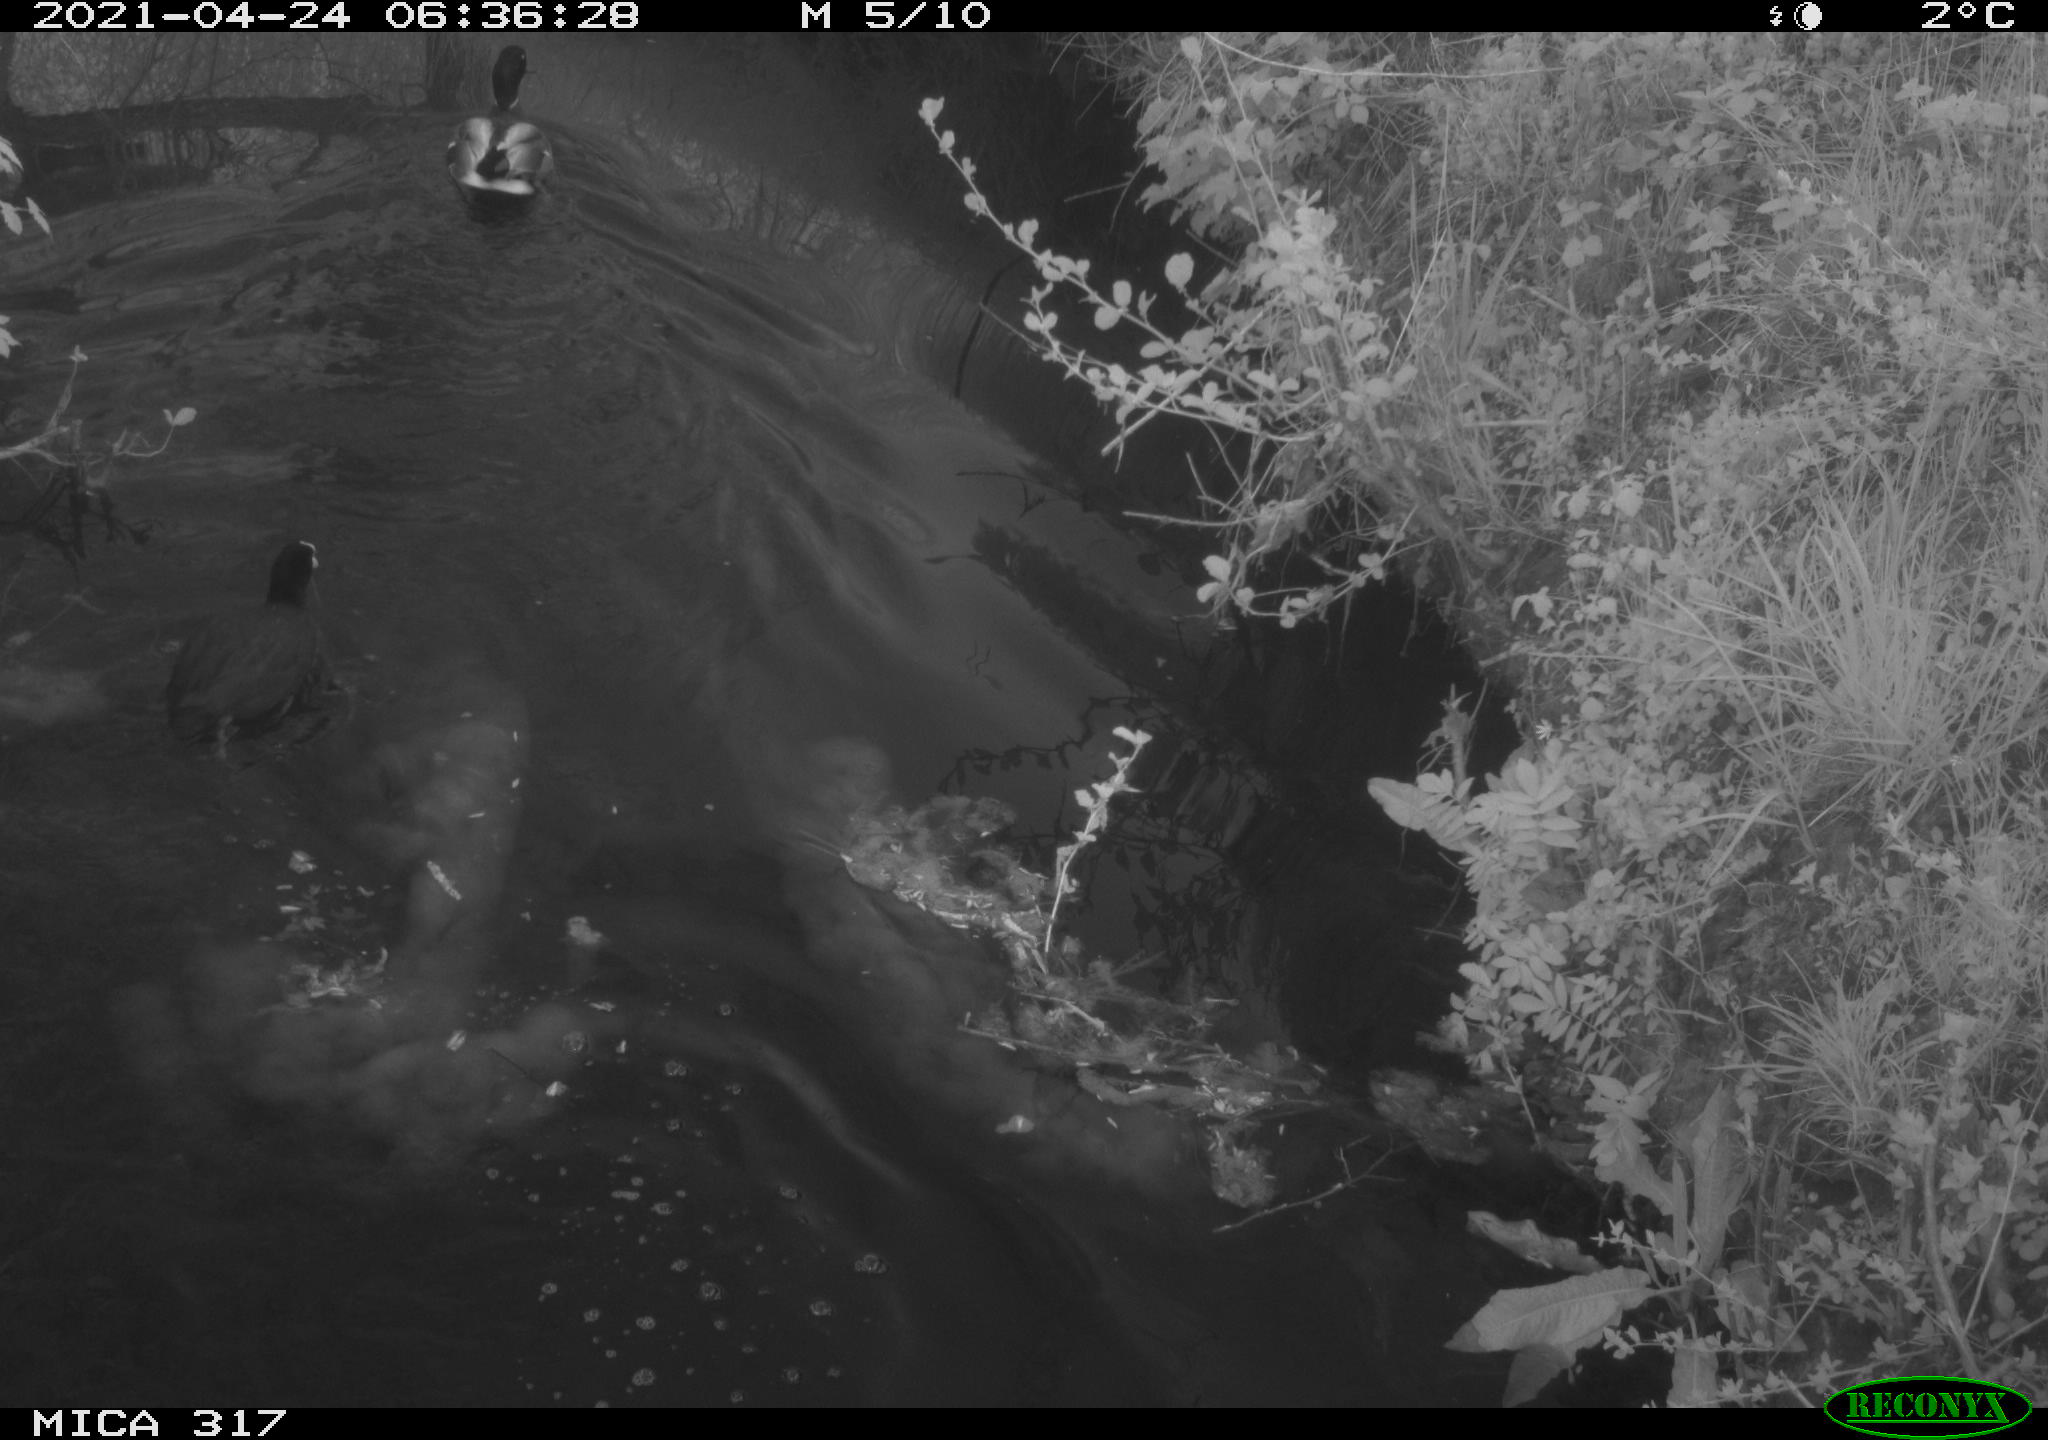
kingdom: Animalia
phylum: Chordata
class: Aves
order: Gruiformes
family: Rallidae
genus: Fulica
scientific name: Fulica atra
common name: Eurasian coot
